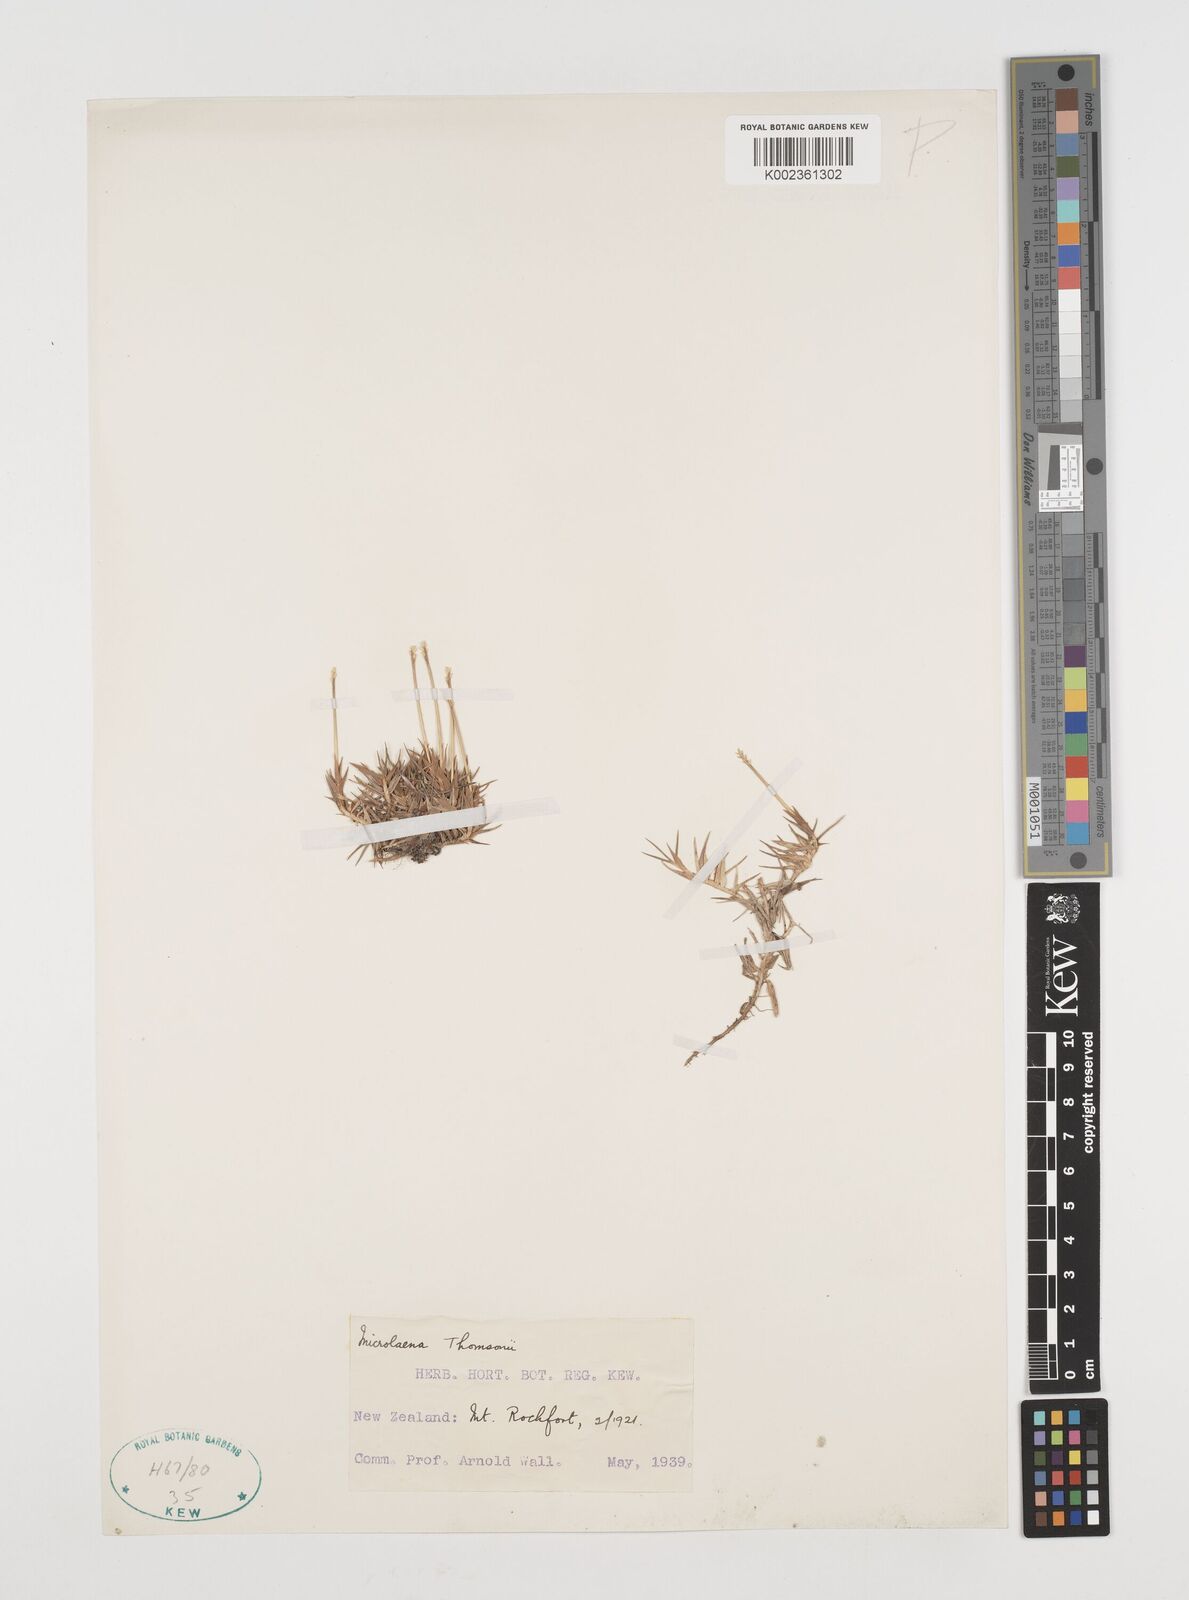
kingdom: Plantae
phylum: Tracheophyta
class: Liliopsida
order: Poales
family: Poaceae
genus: Zotovia
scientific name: Zotovia thomsonii
